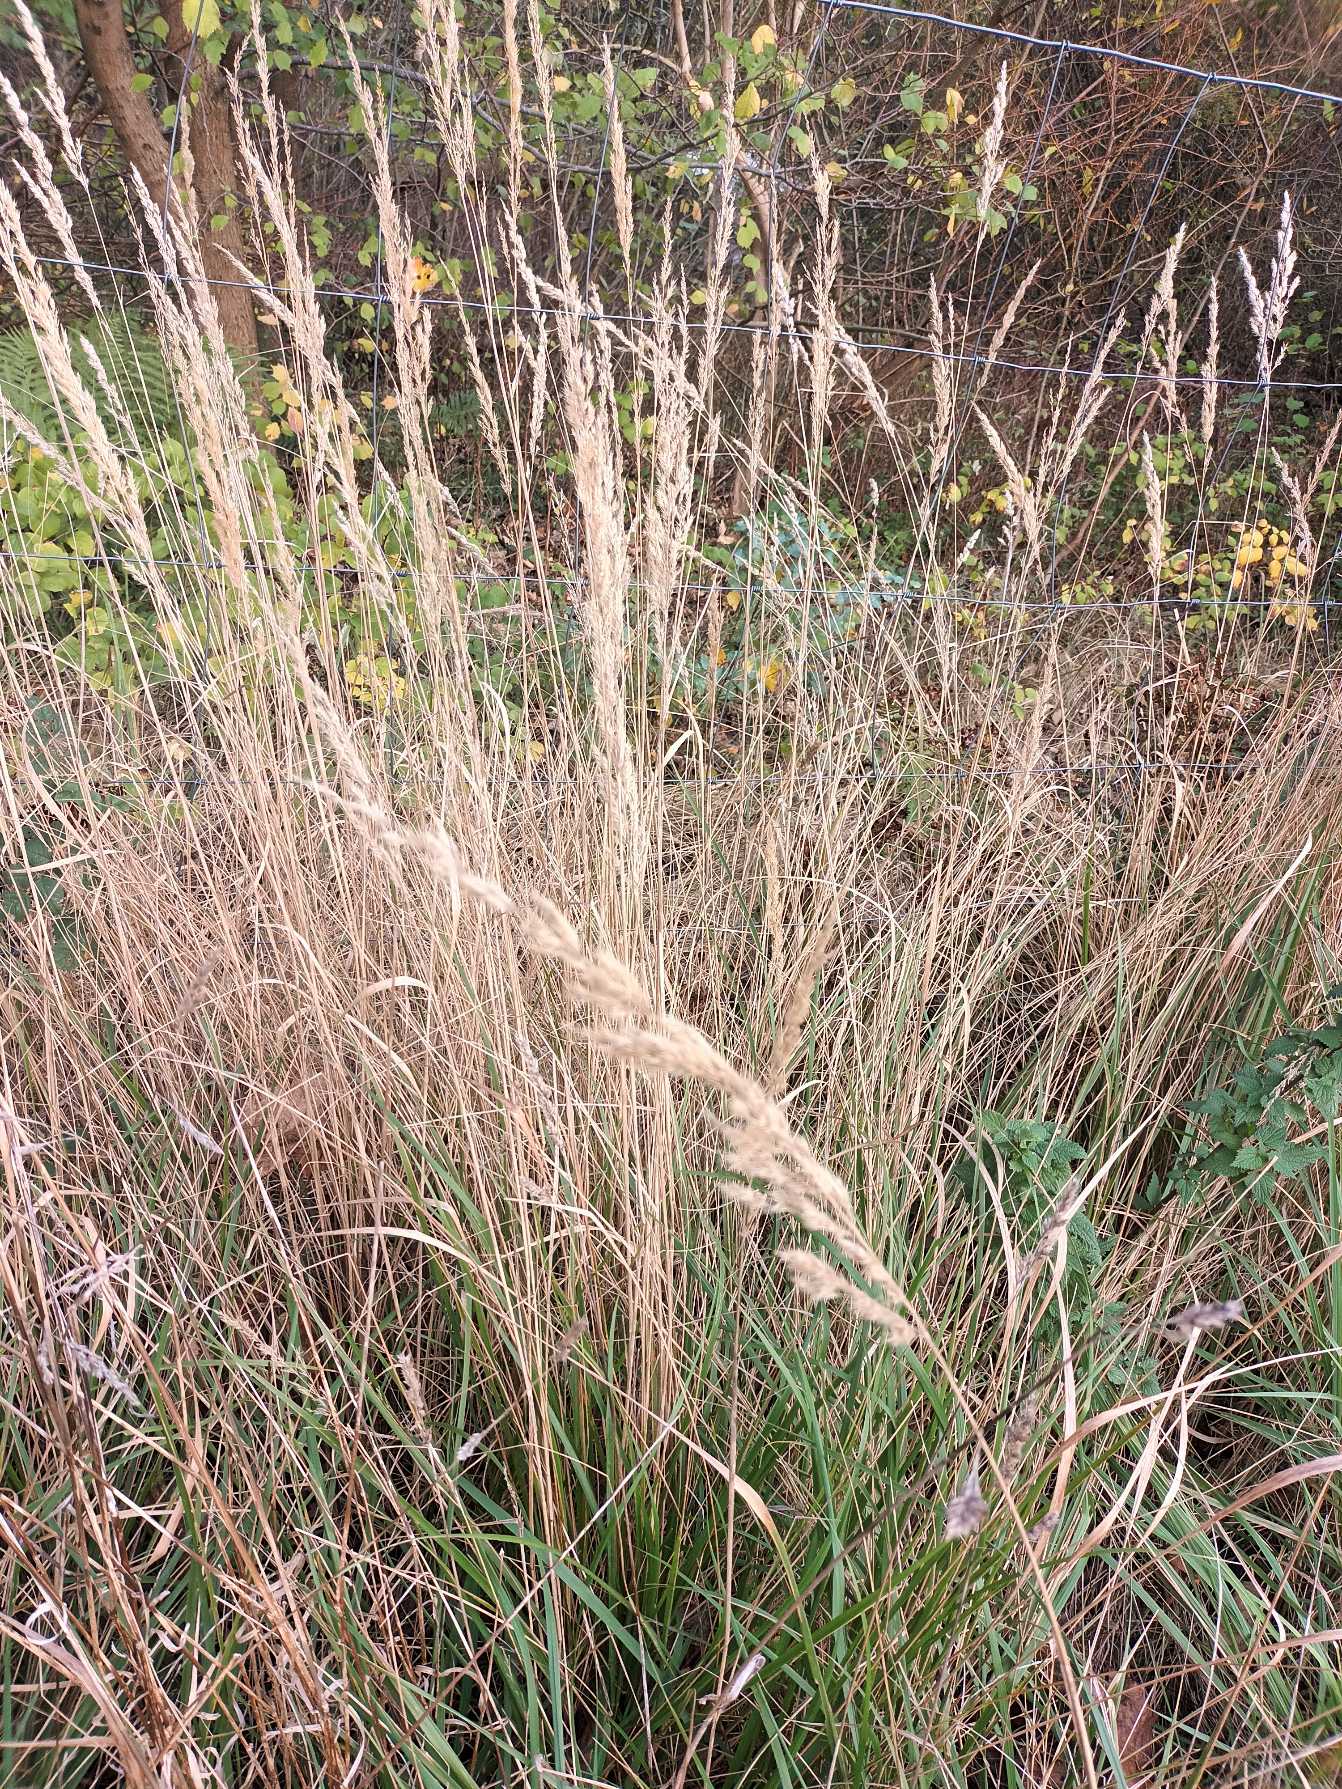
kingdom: Plantae
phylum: Tracheophyta
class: Liliopsida
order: Poales
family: Poaceae
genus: Calamagrostis
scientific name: Calamagrostis epigejos
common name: Bjerg-rørhvene
